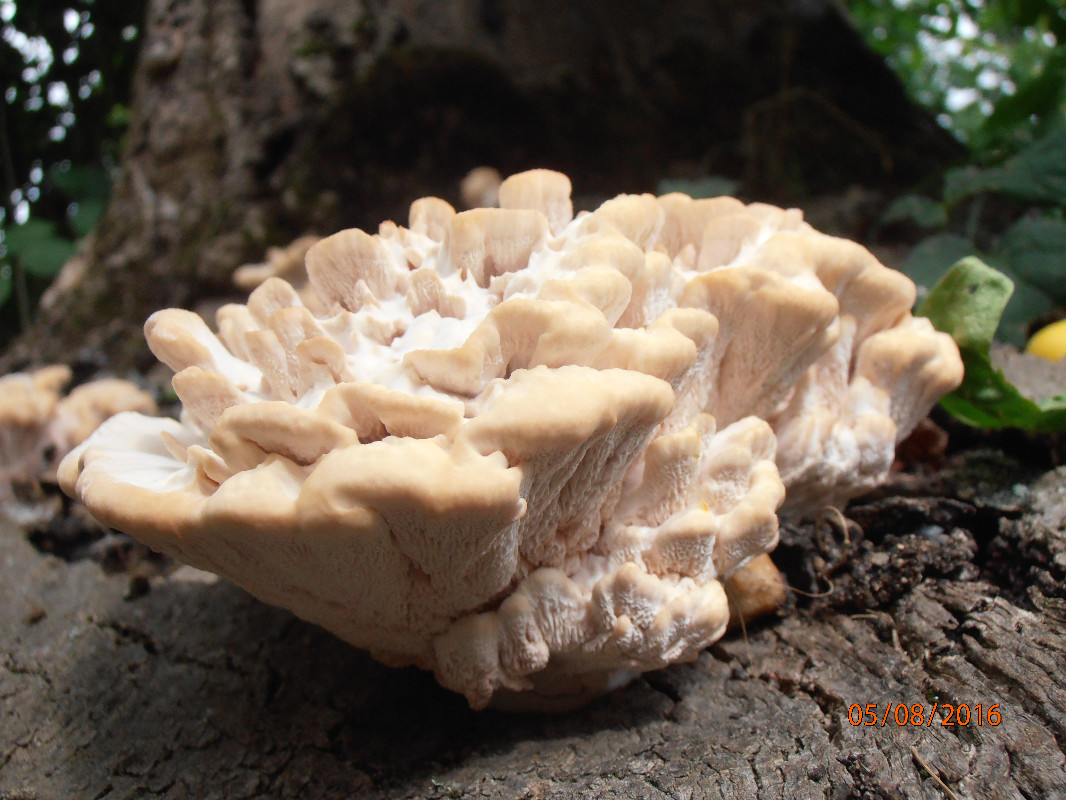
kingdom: Fungi
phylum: Basidiomycota
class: Agaricomycetes
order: Polyporales
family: Podoscyphaceae
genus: Abortiporus
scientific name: Abortiporus biennis
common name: rødmende pjalteporesvamp
